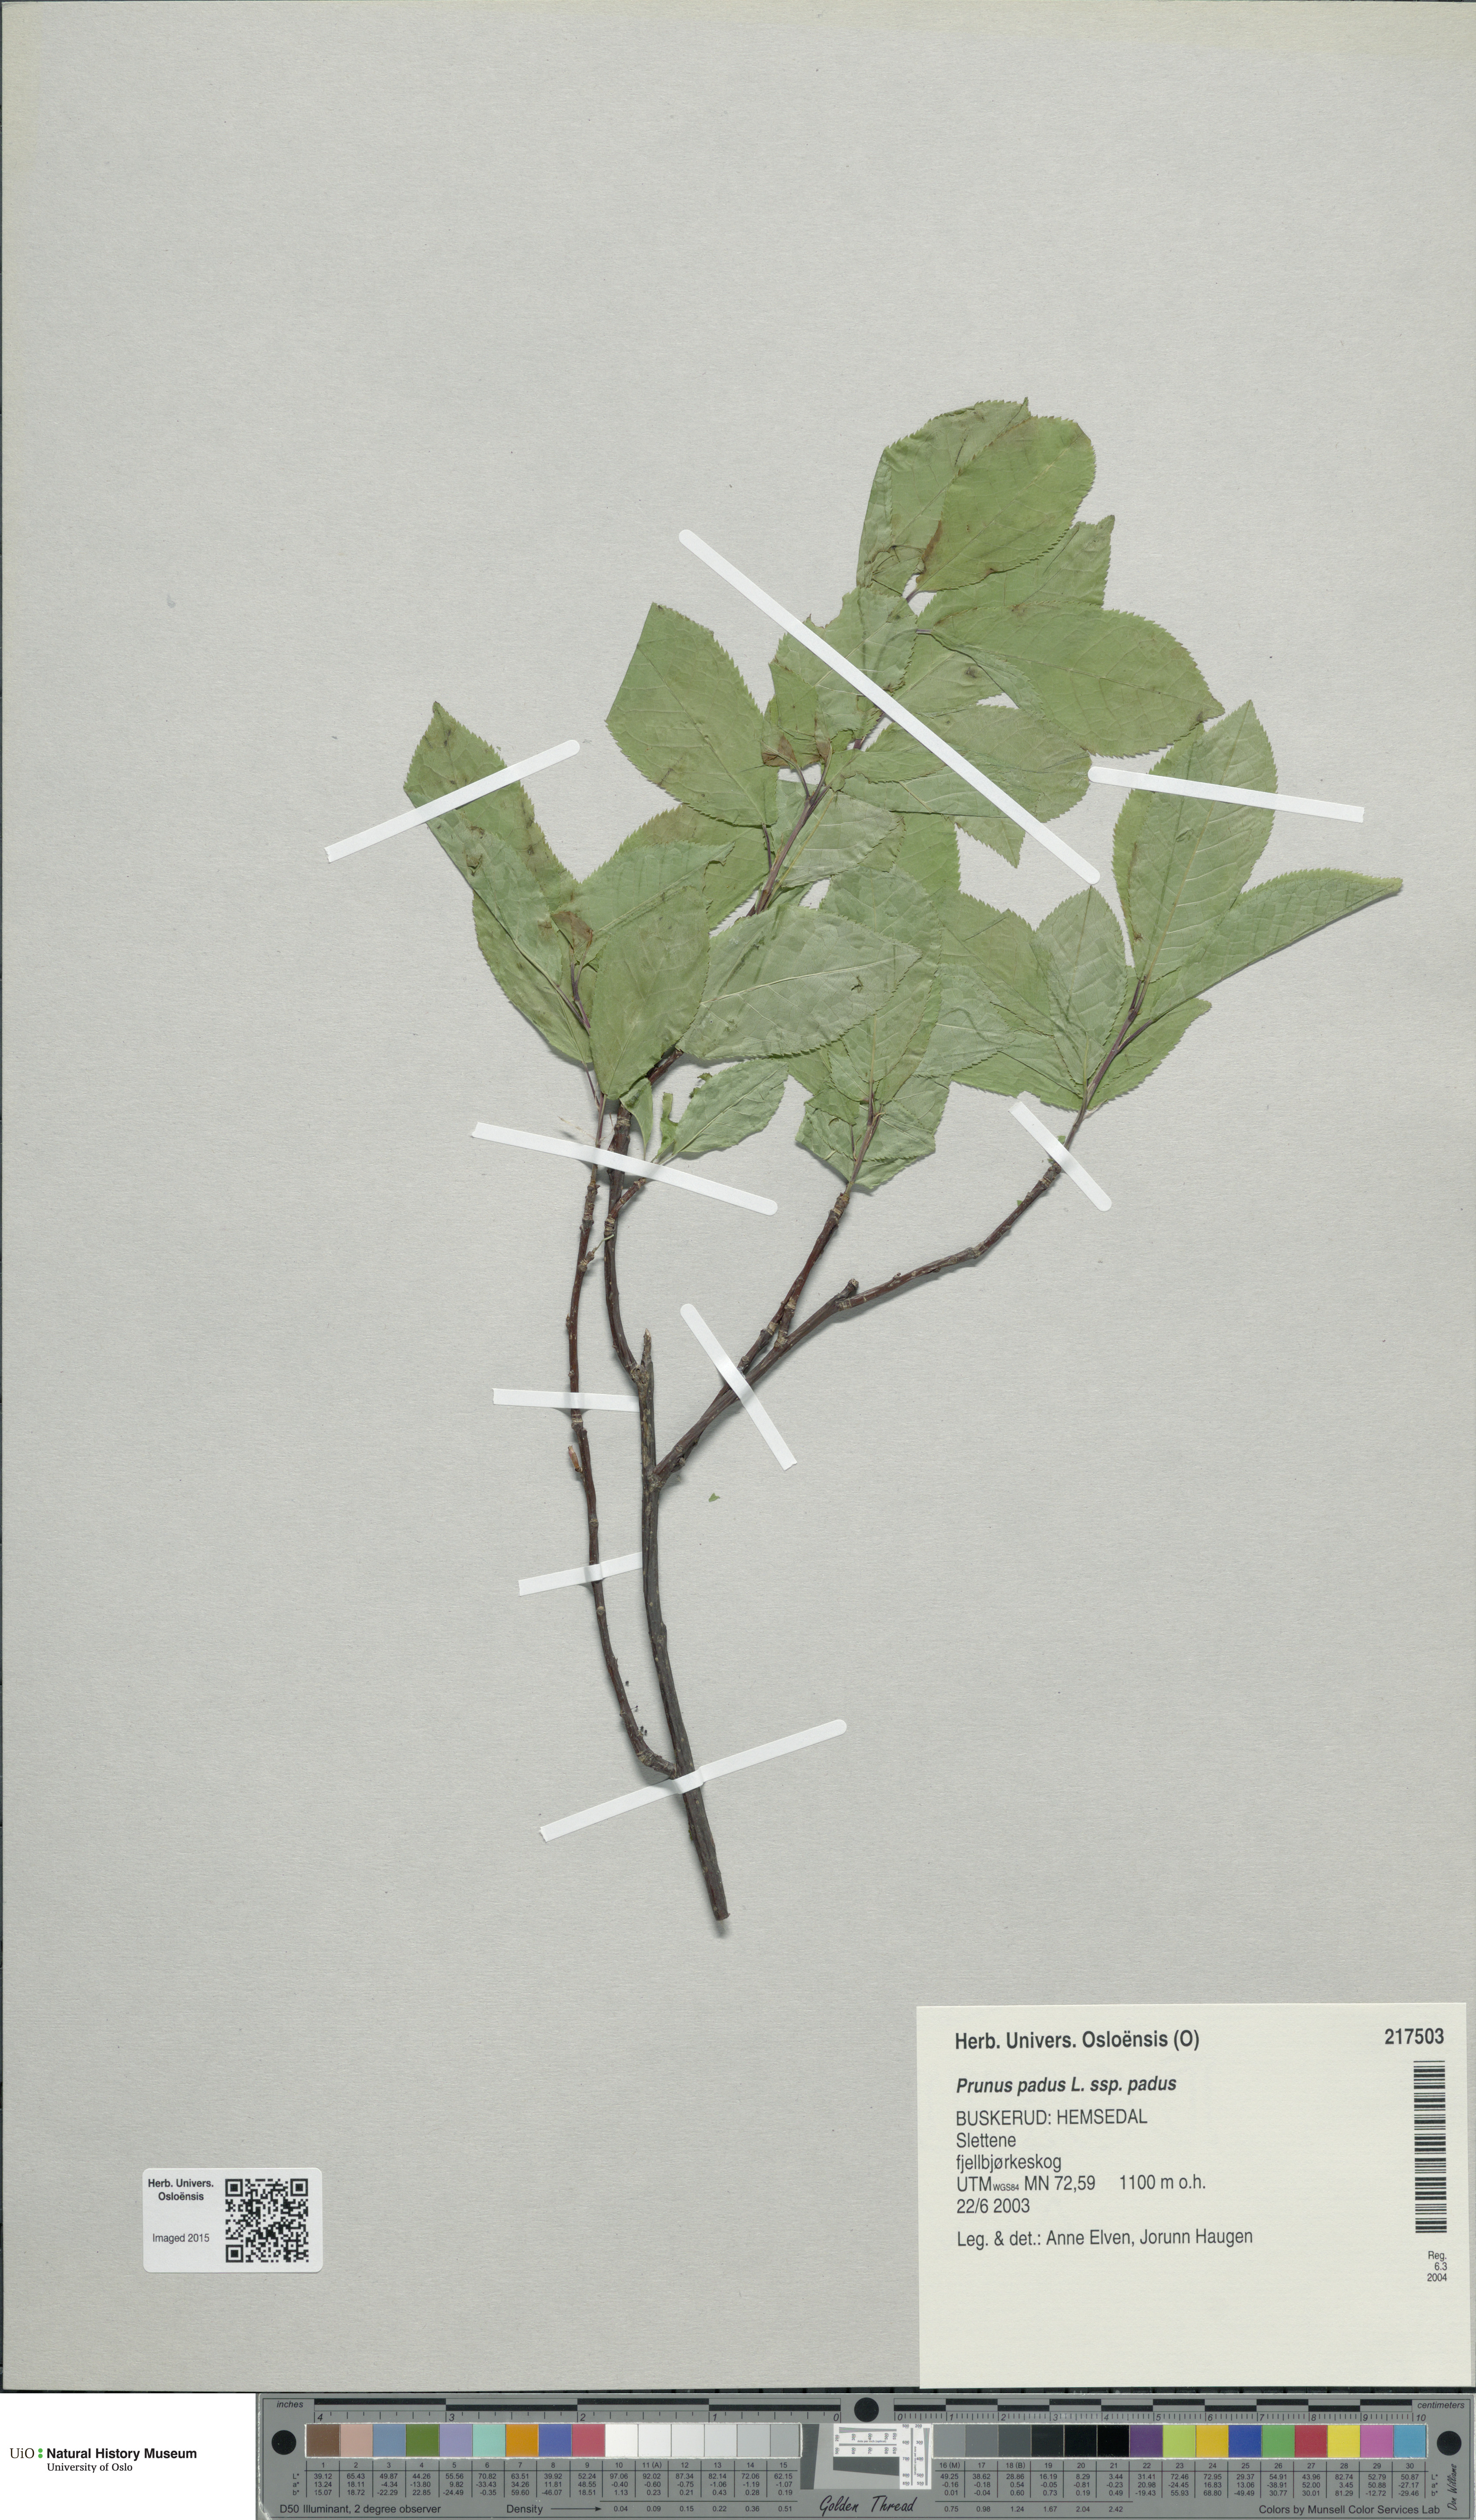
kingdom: Plantae
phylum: Tracheophyta
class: Magnoliopsida
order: Rosales
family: Rosaceae
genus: Prunus
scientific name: Prunus padus
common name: Bird cherry
